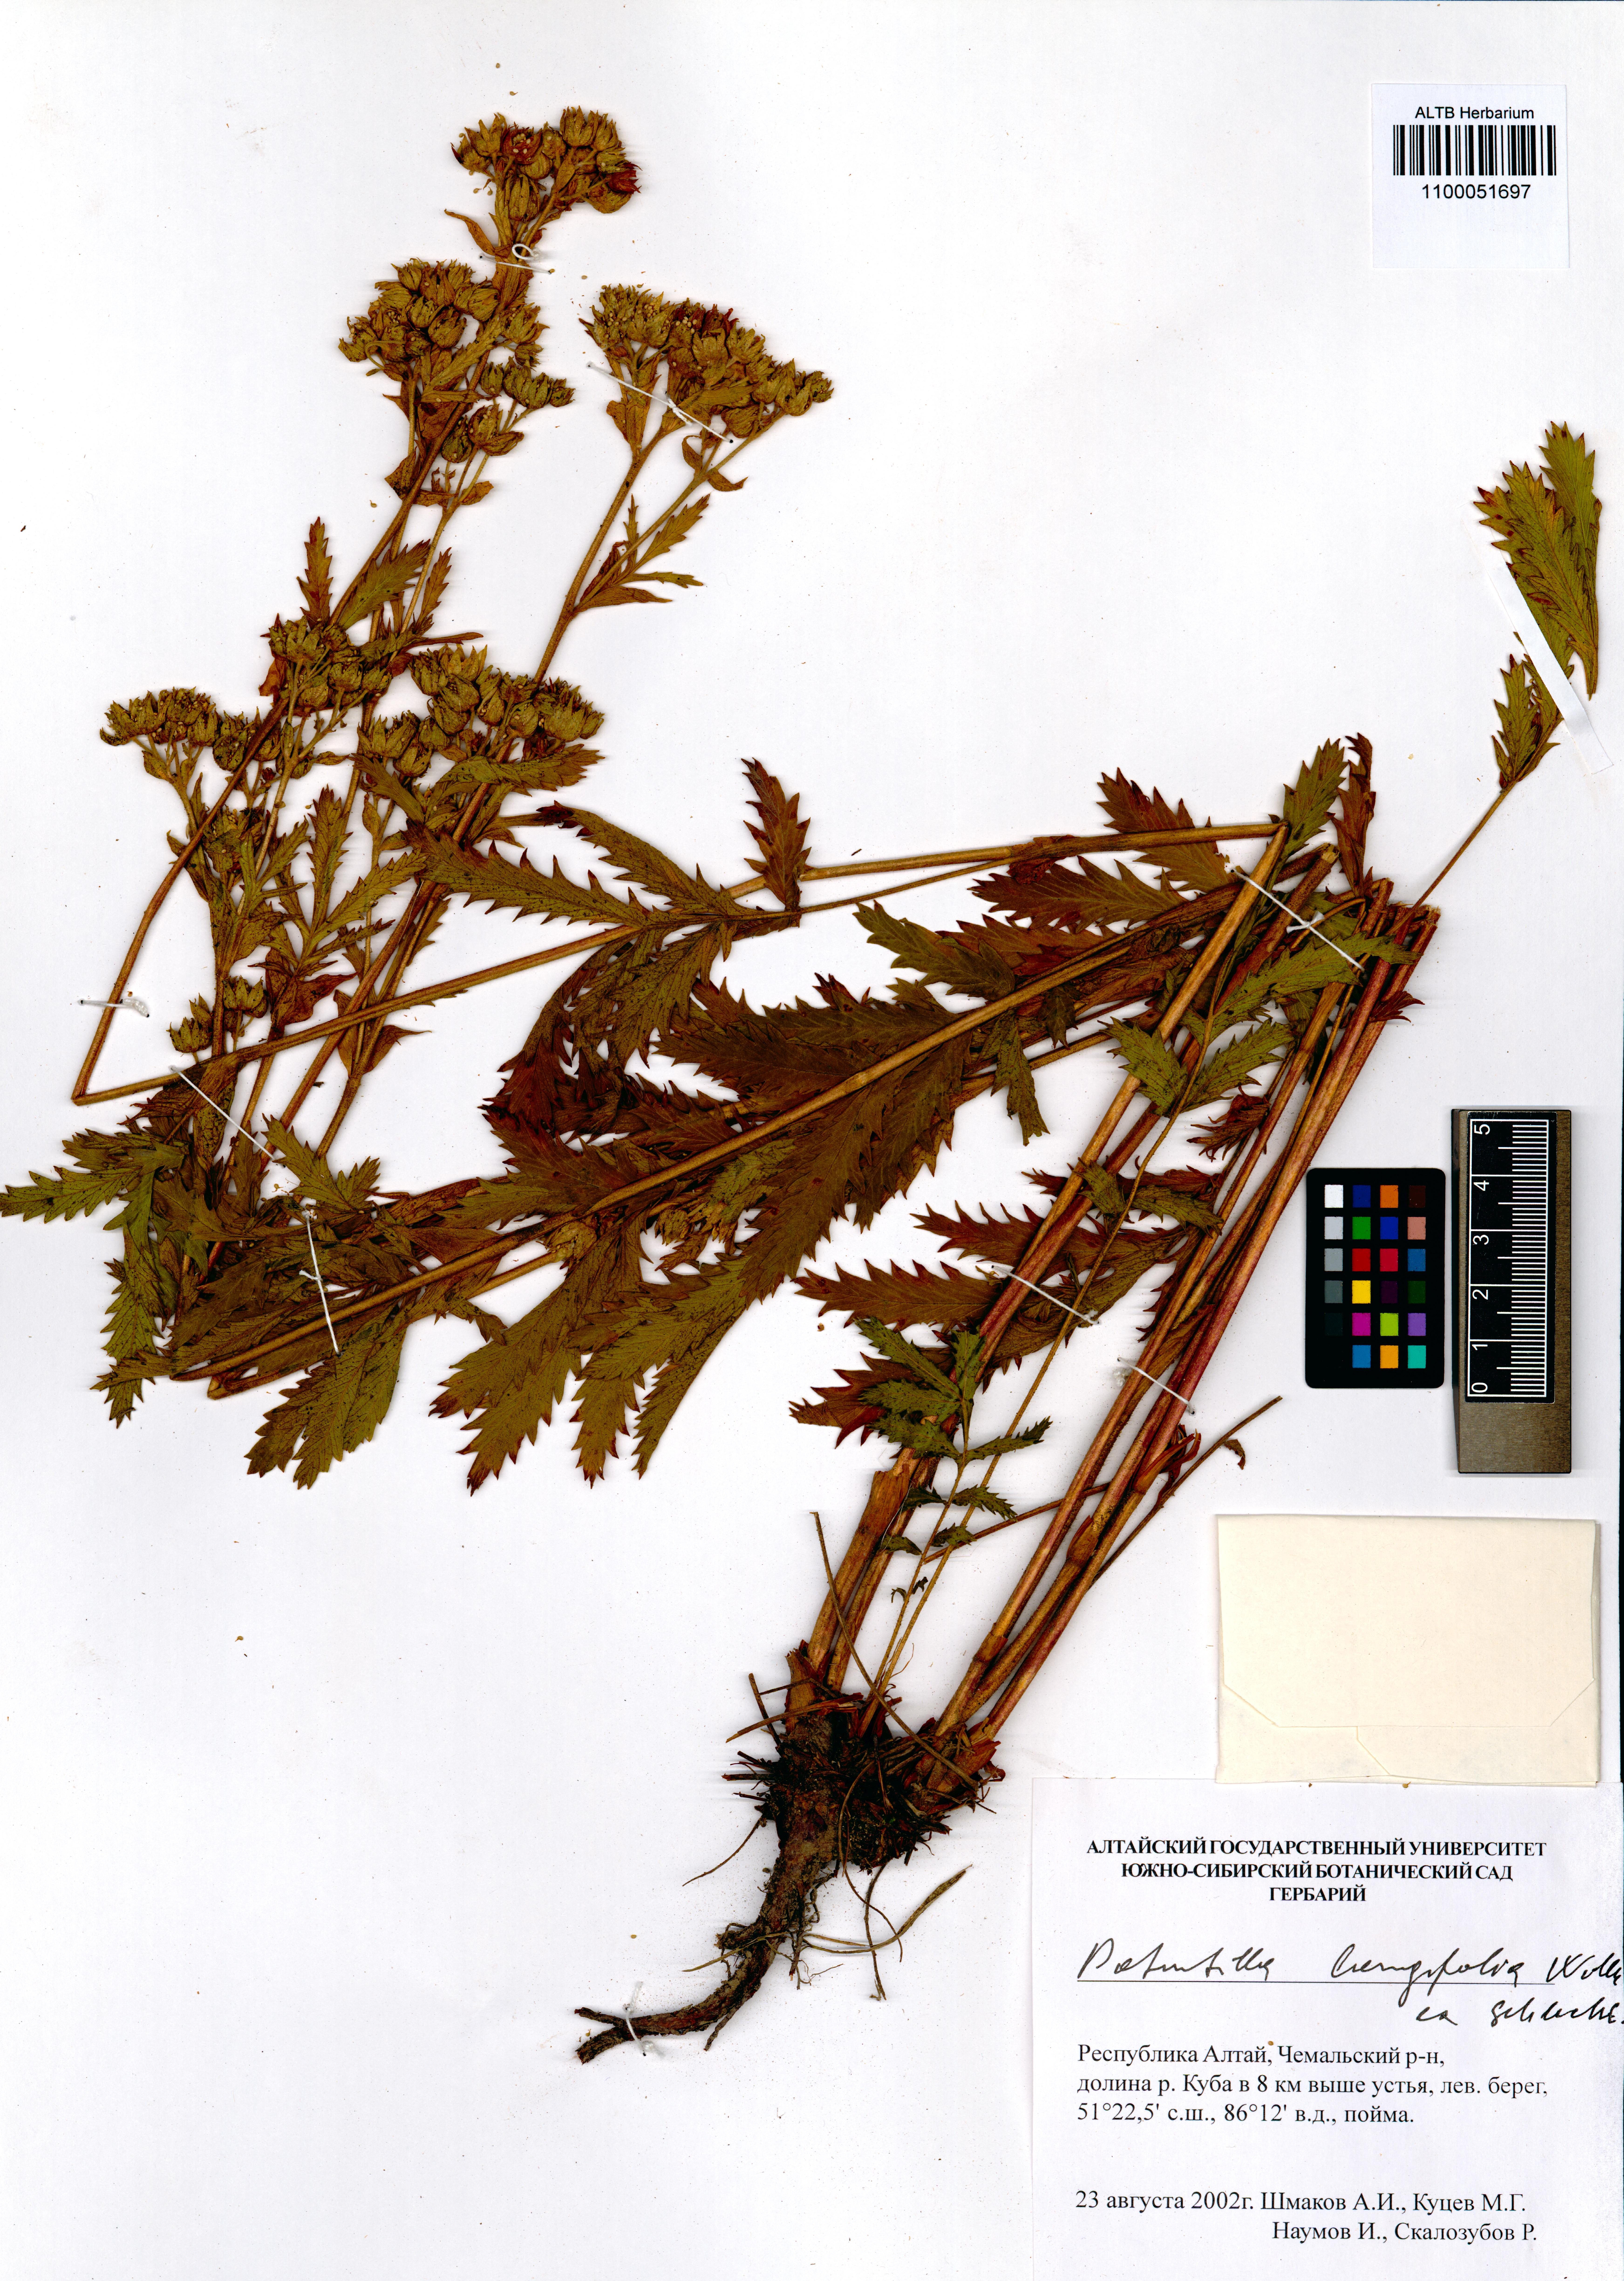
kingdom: Plantae
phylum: Tracheophyta
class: Magnoliopsida
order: Rosales
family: Rosaceae
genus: Potentilla
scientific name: Potentilla longifolia
